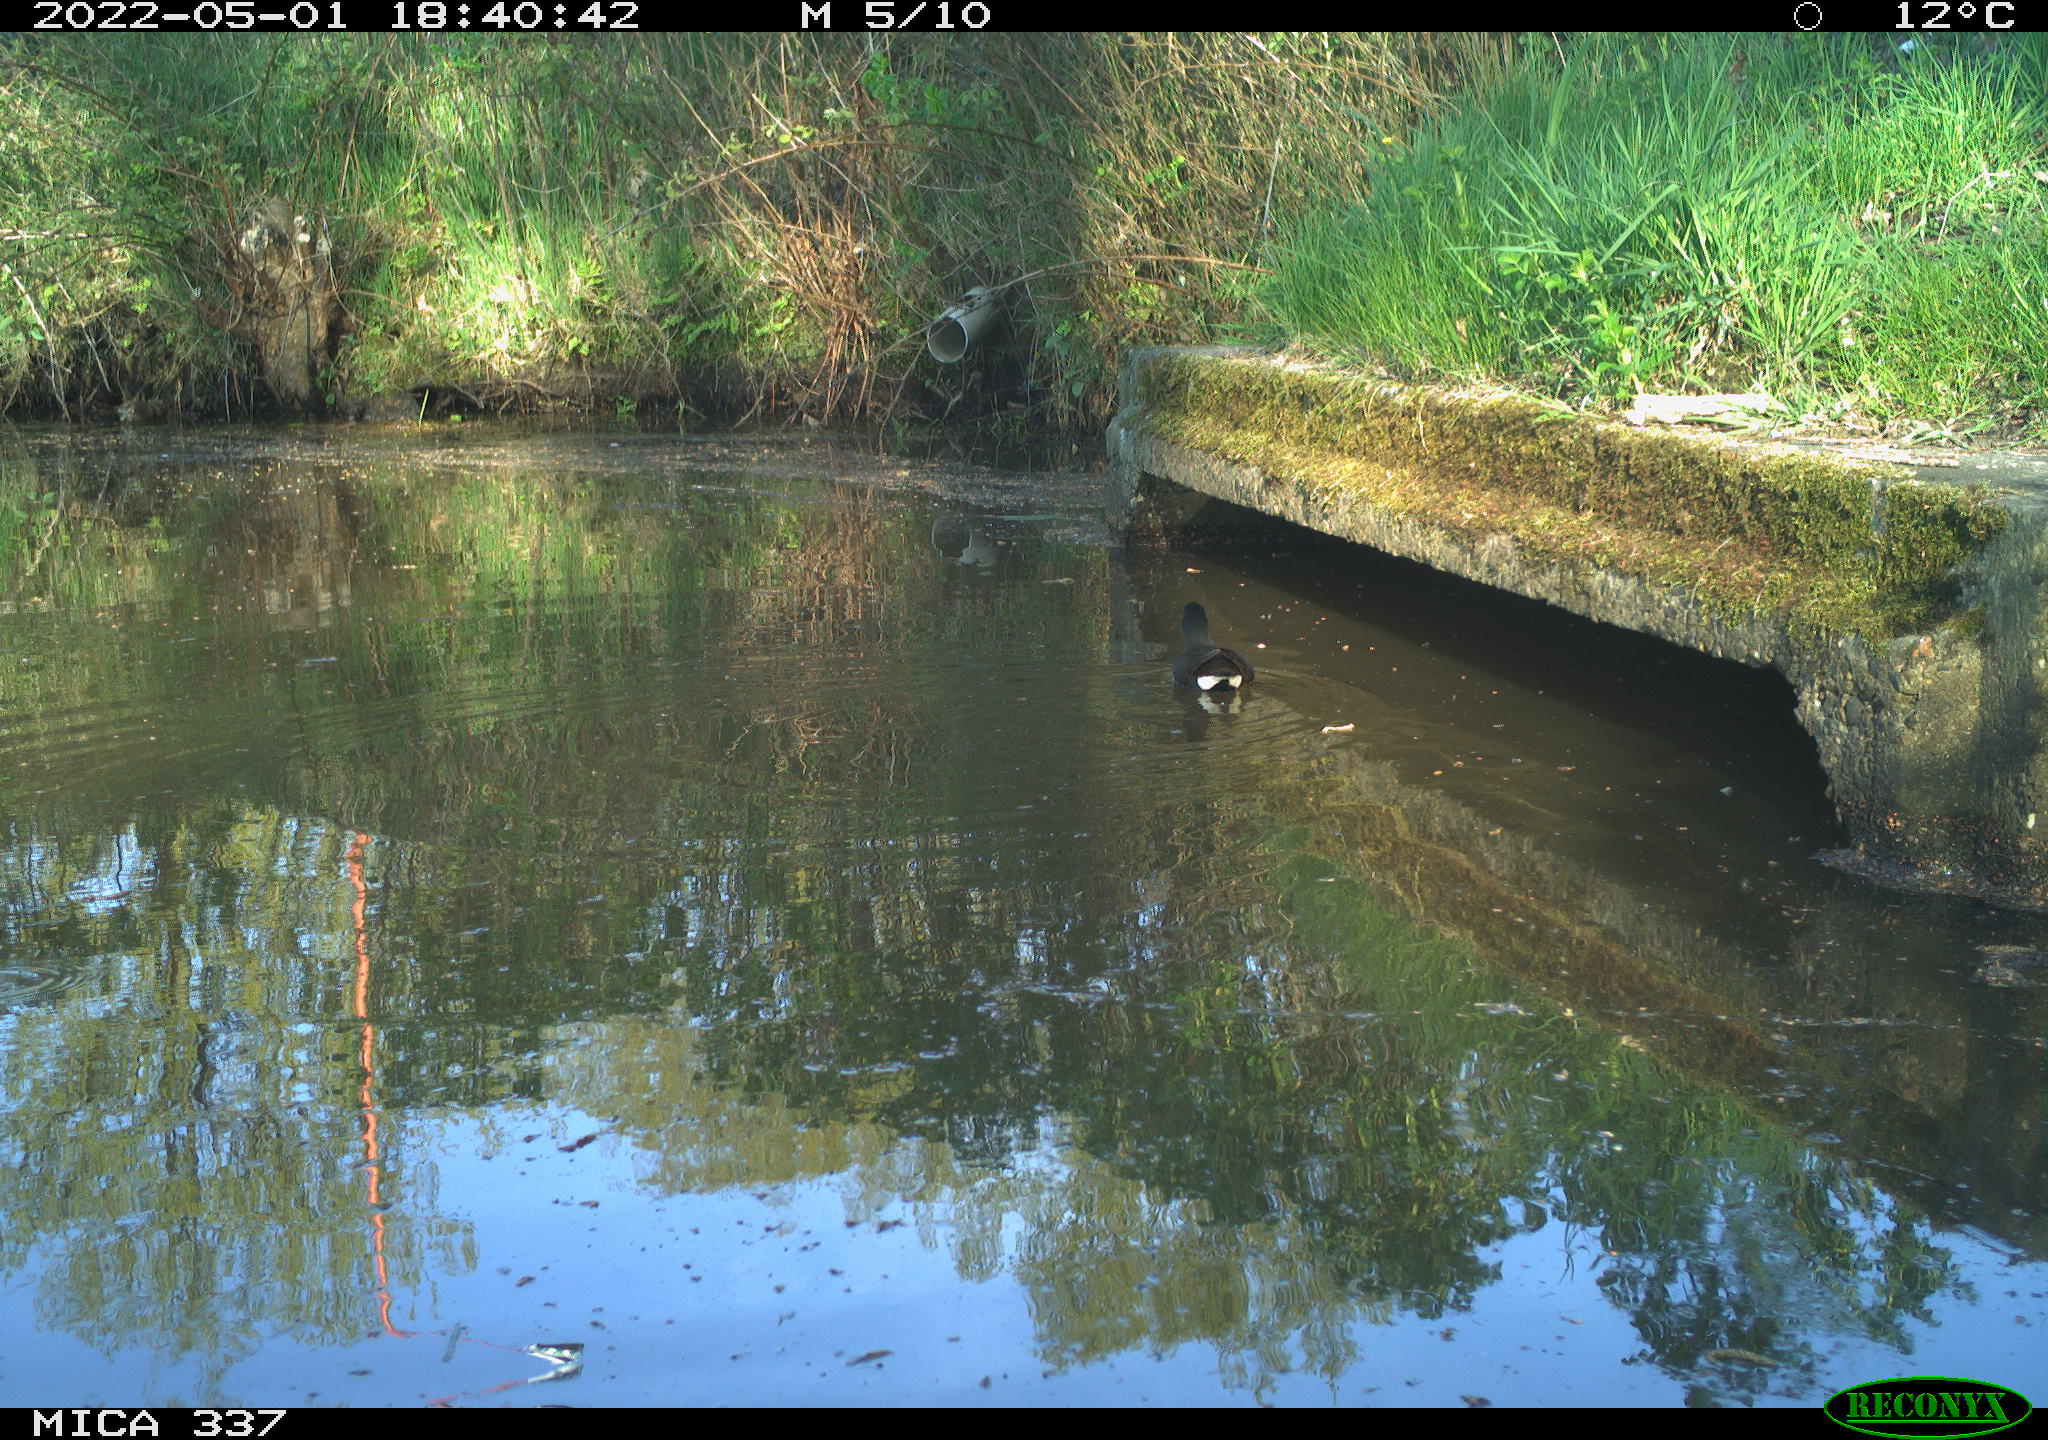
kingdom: Animalia
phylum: Chordata
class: Aves
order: Gruiformes
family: Rallidae
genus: Gallinula
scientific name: Gallinula chloropus
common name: Common moorhen
